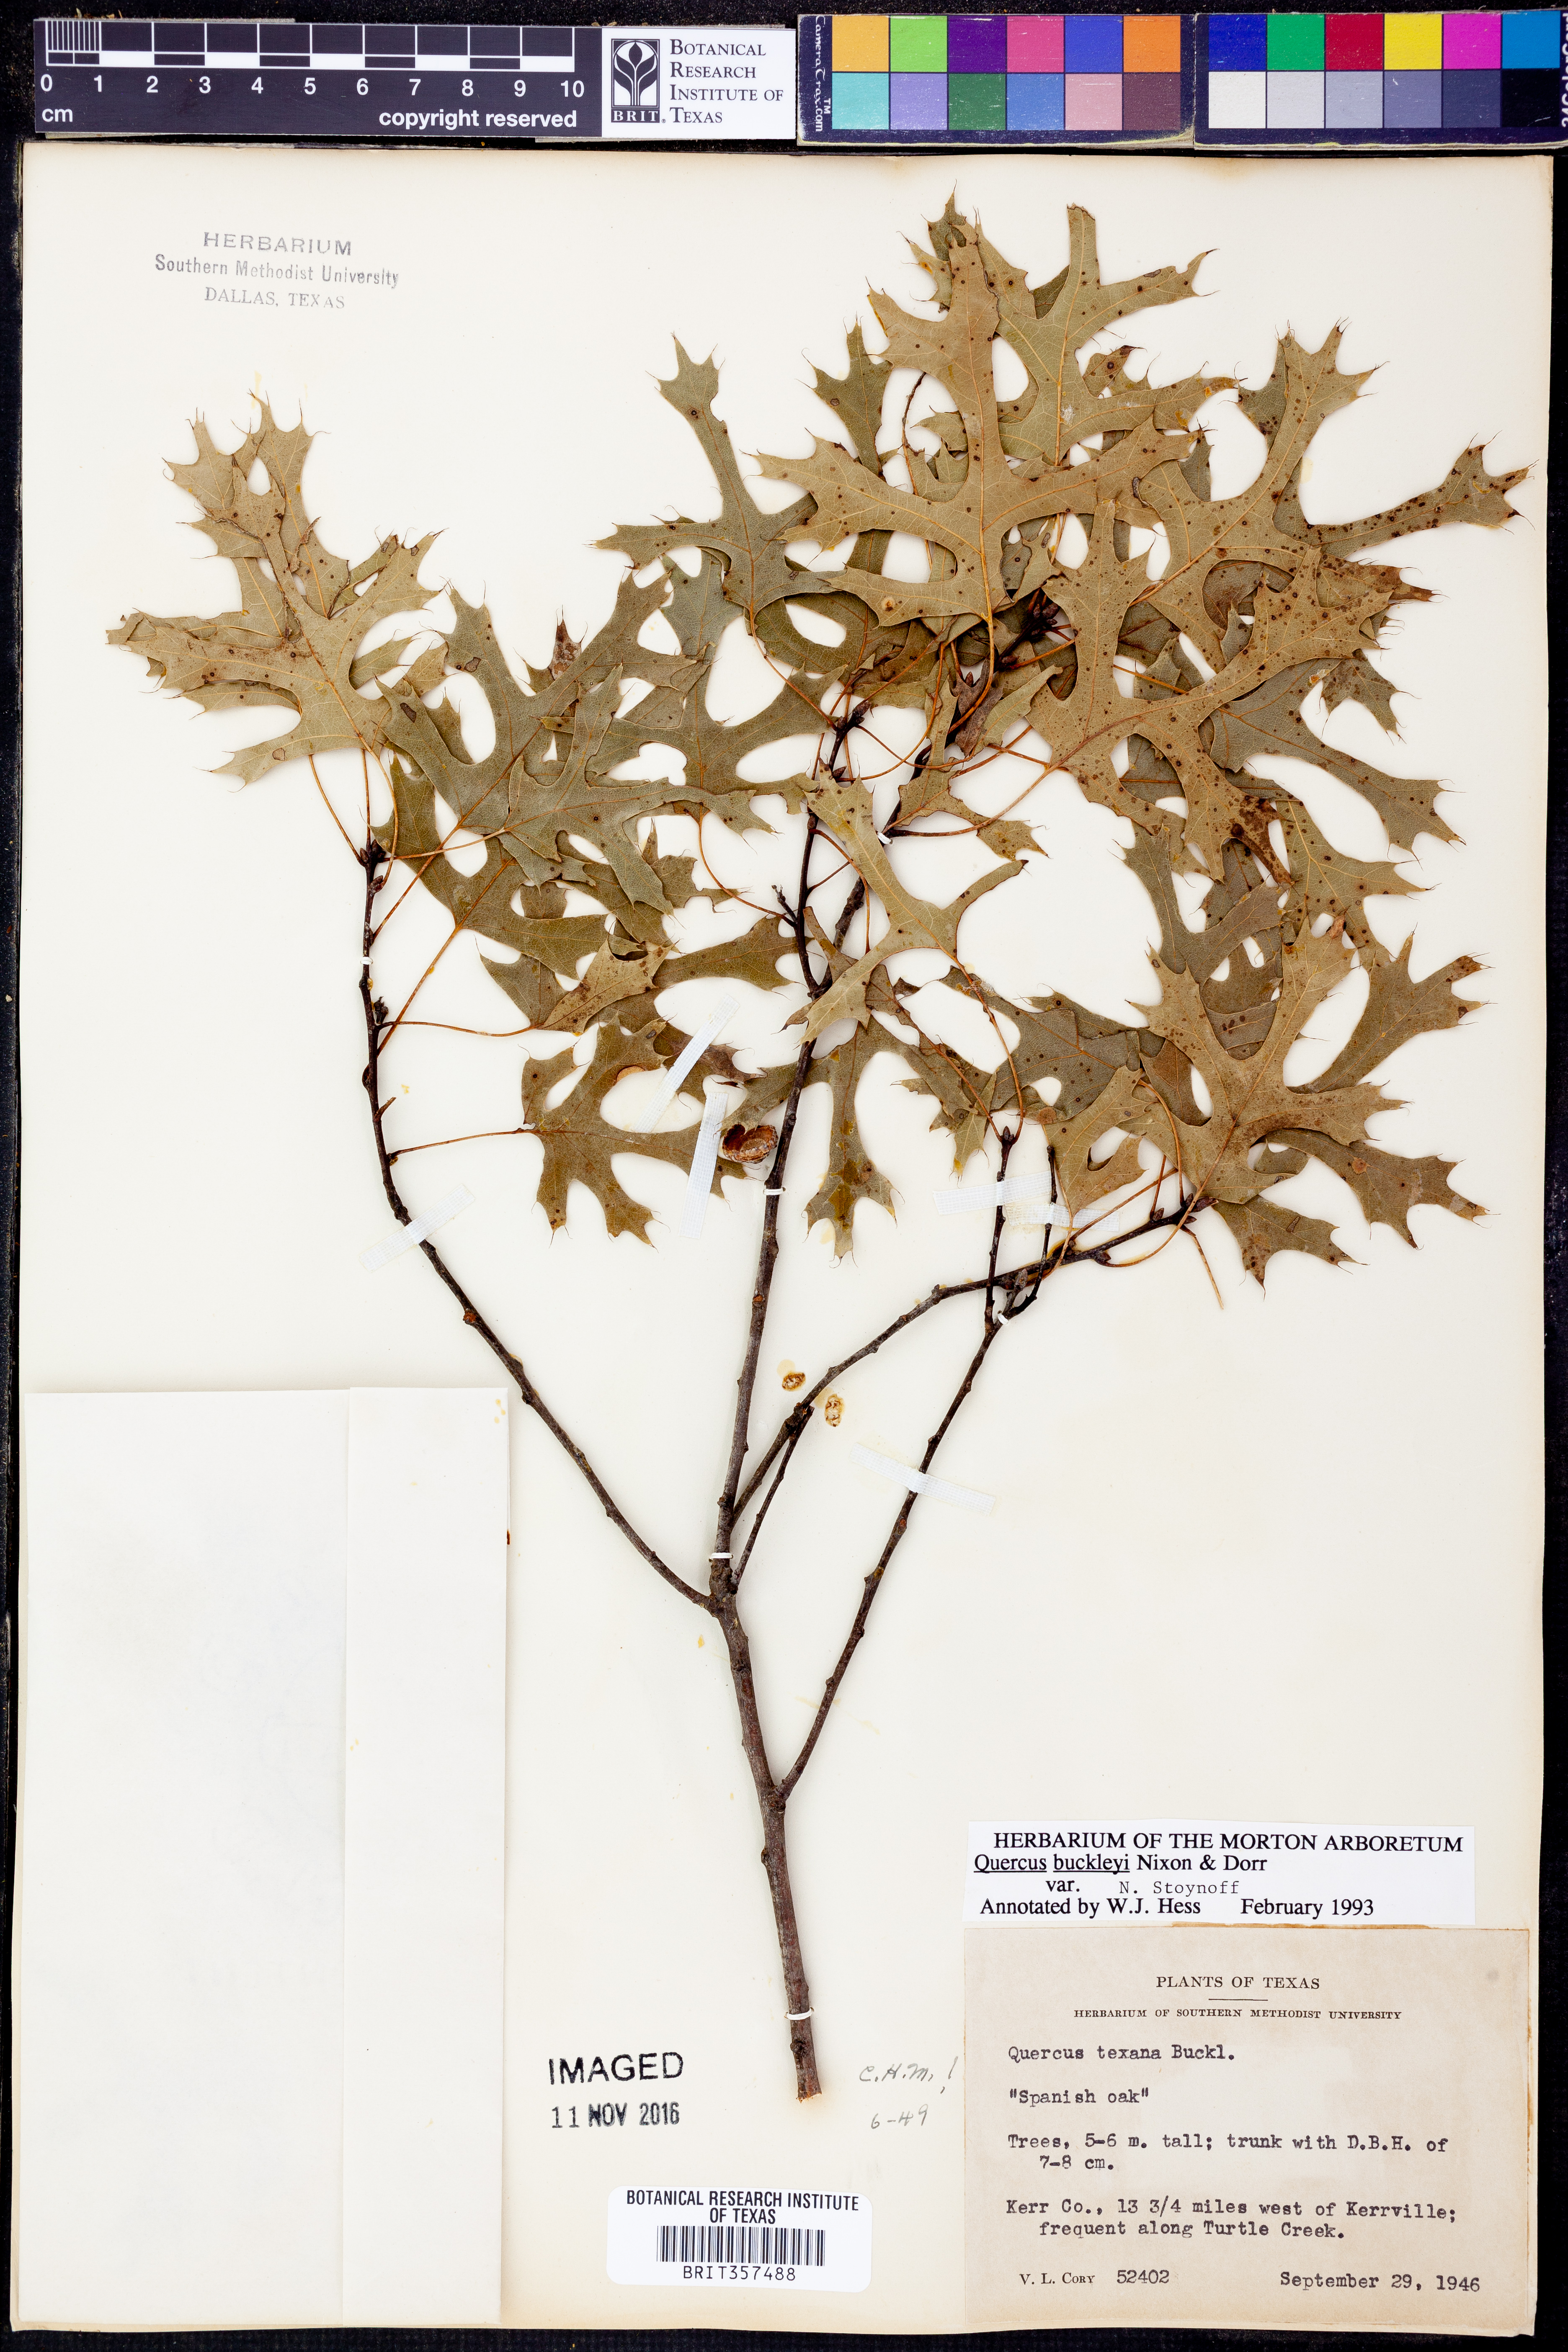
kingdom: Plantae
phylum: Tracheophyta
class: Magnoliopsida
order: Fagales
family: Fagaceae
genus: Quercus
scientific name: Quercus buckleyi
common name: Buckley oak
